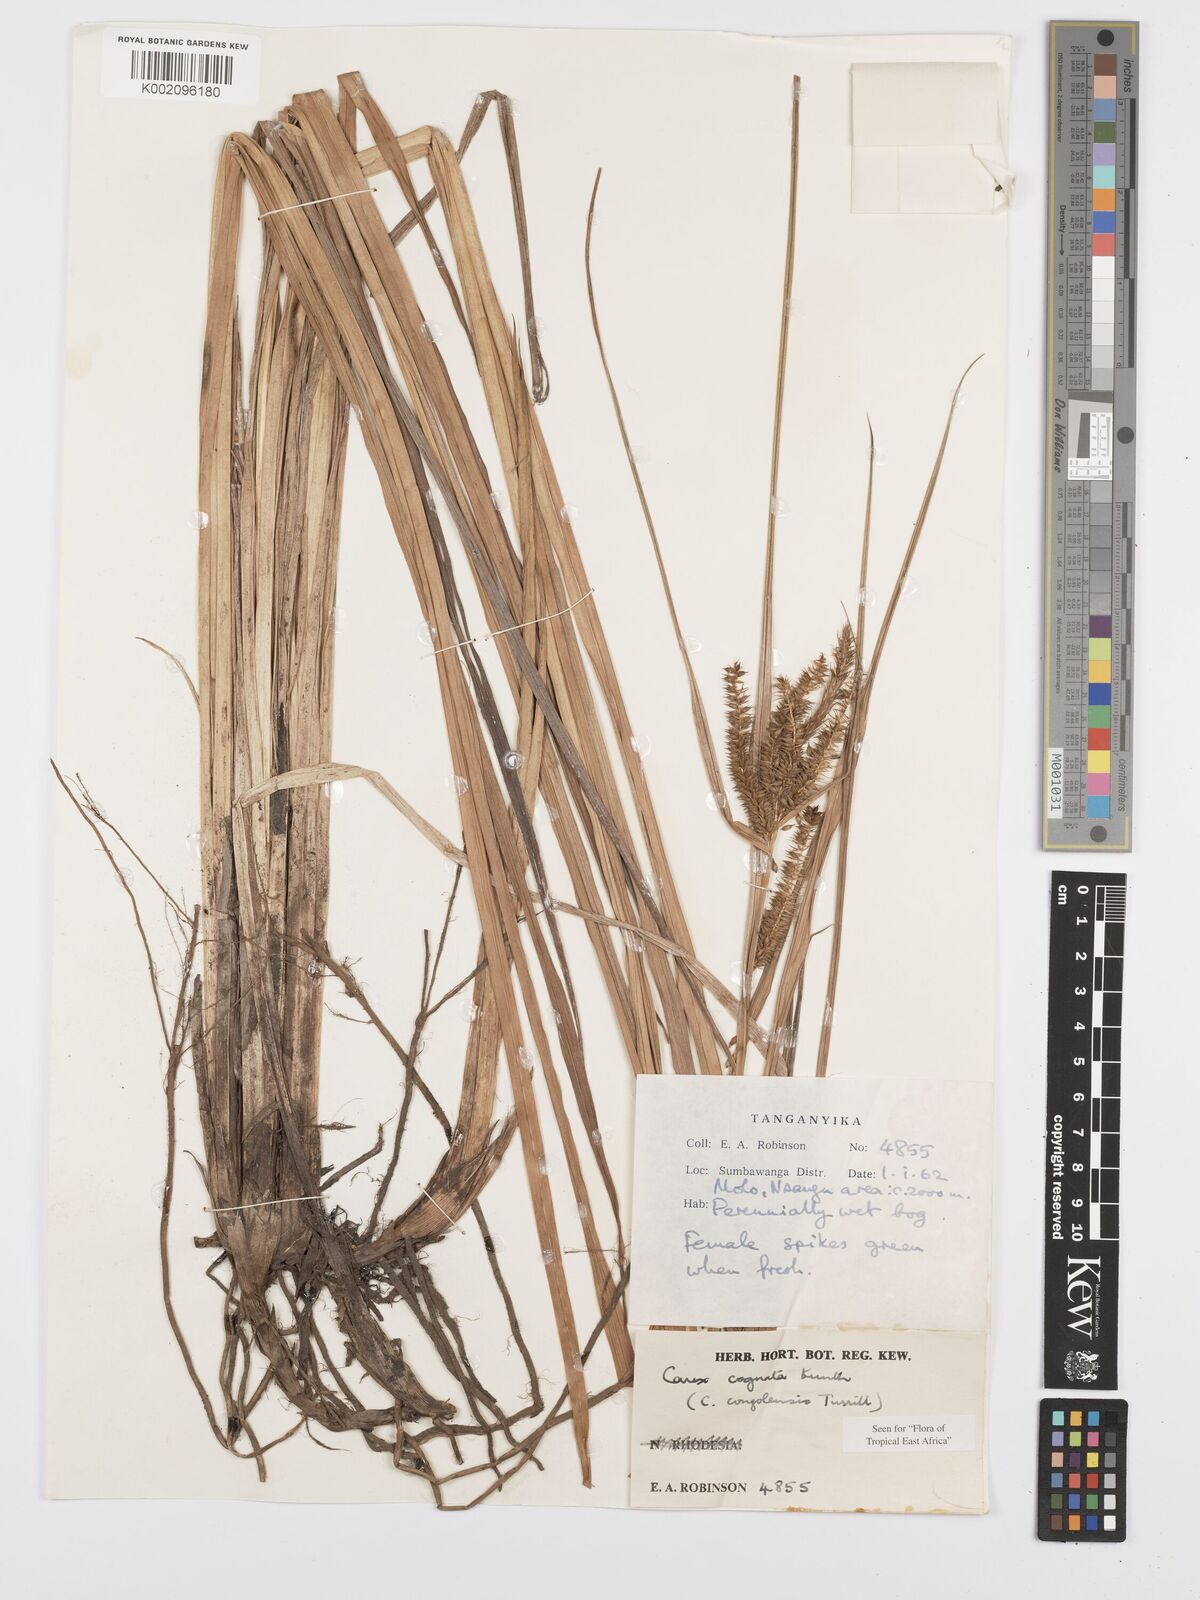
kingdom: Plantae
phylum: Tracheophyta
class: Liliopsida
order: Poales
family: Cyperaceae
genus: Carex
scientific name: Carex congolensis
